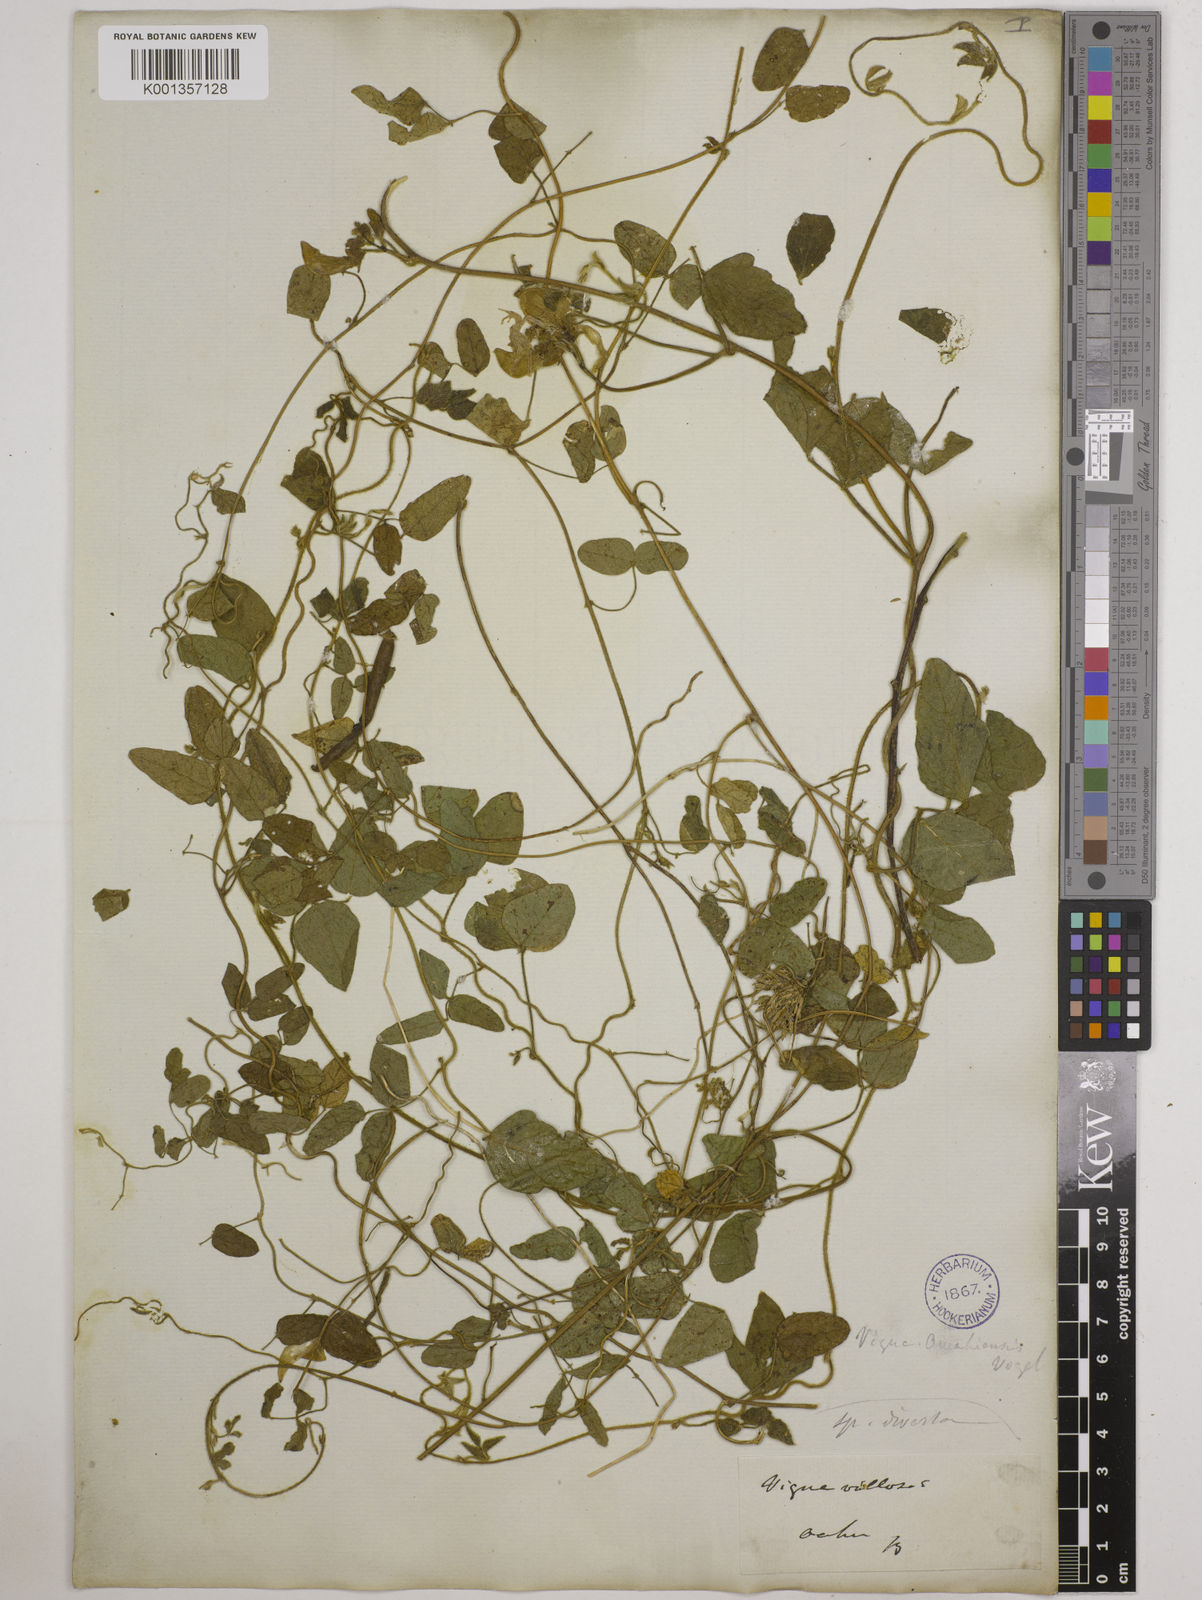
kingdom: Plantae
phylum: Tracheophyta
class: Magnoliopsida
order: Fabales
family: Fabaceae
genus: Vigna
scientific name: Vigna
